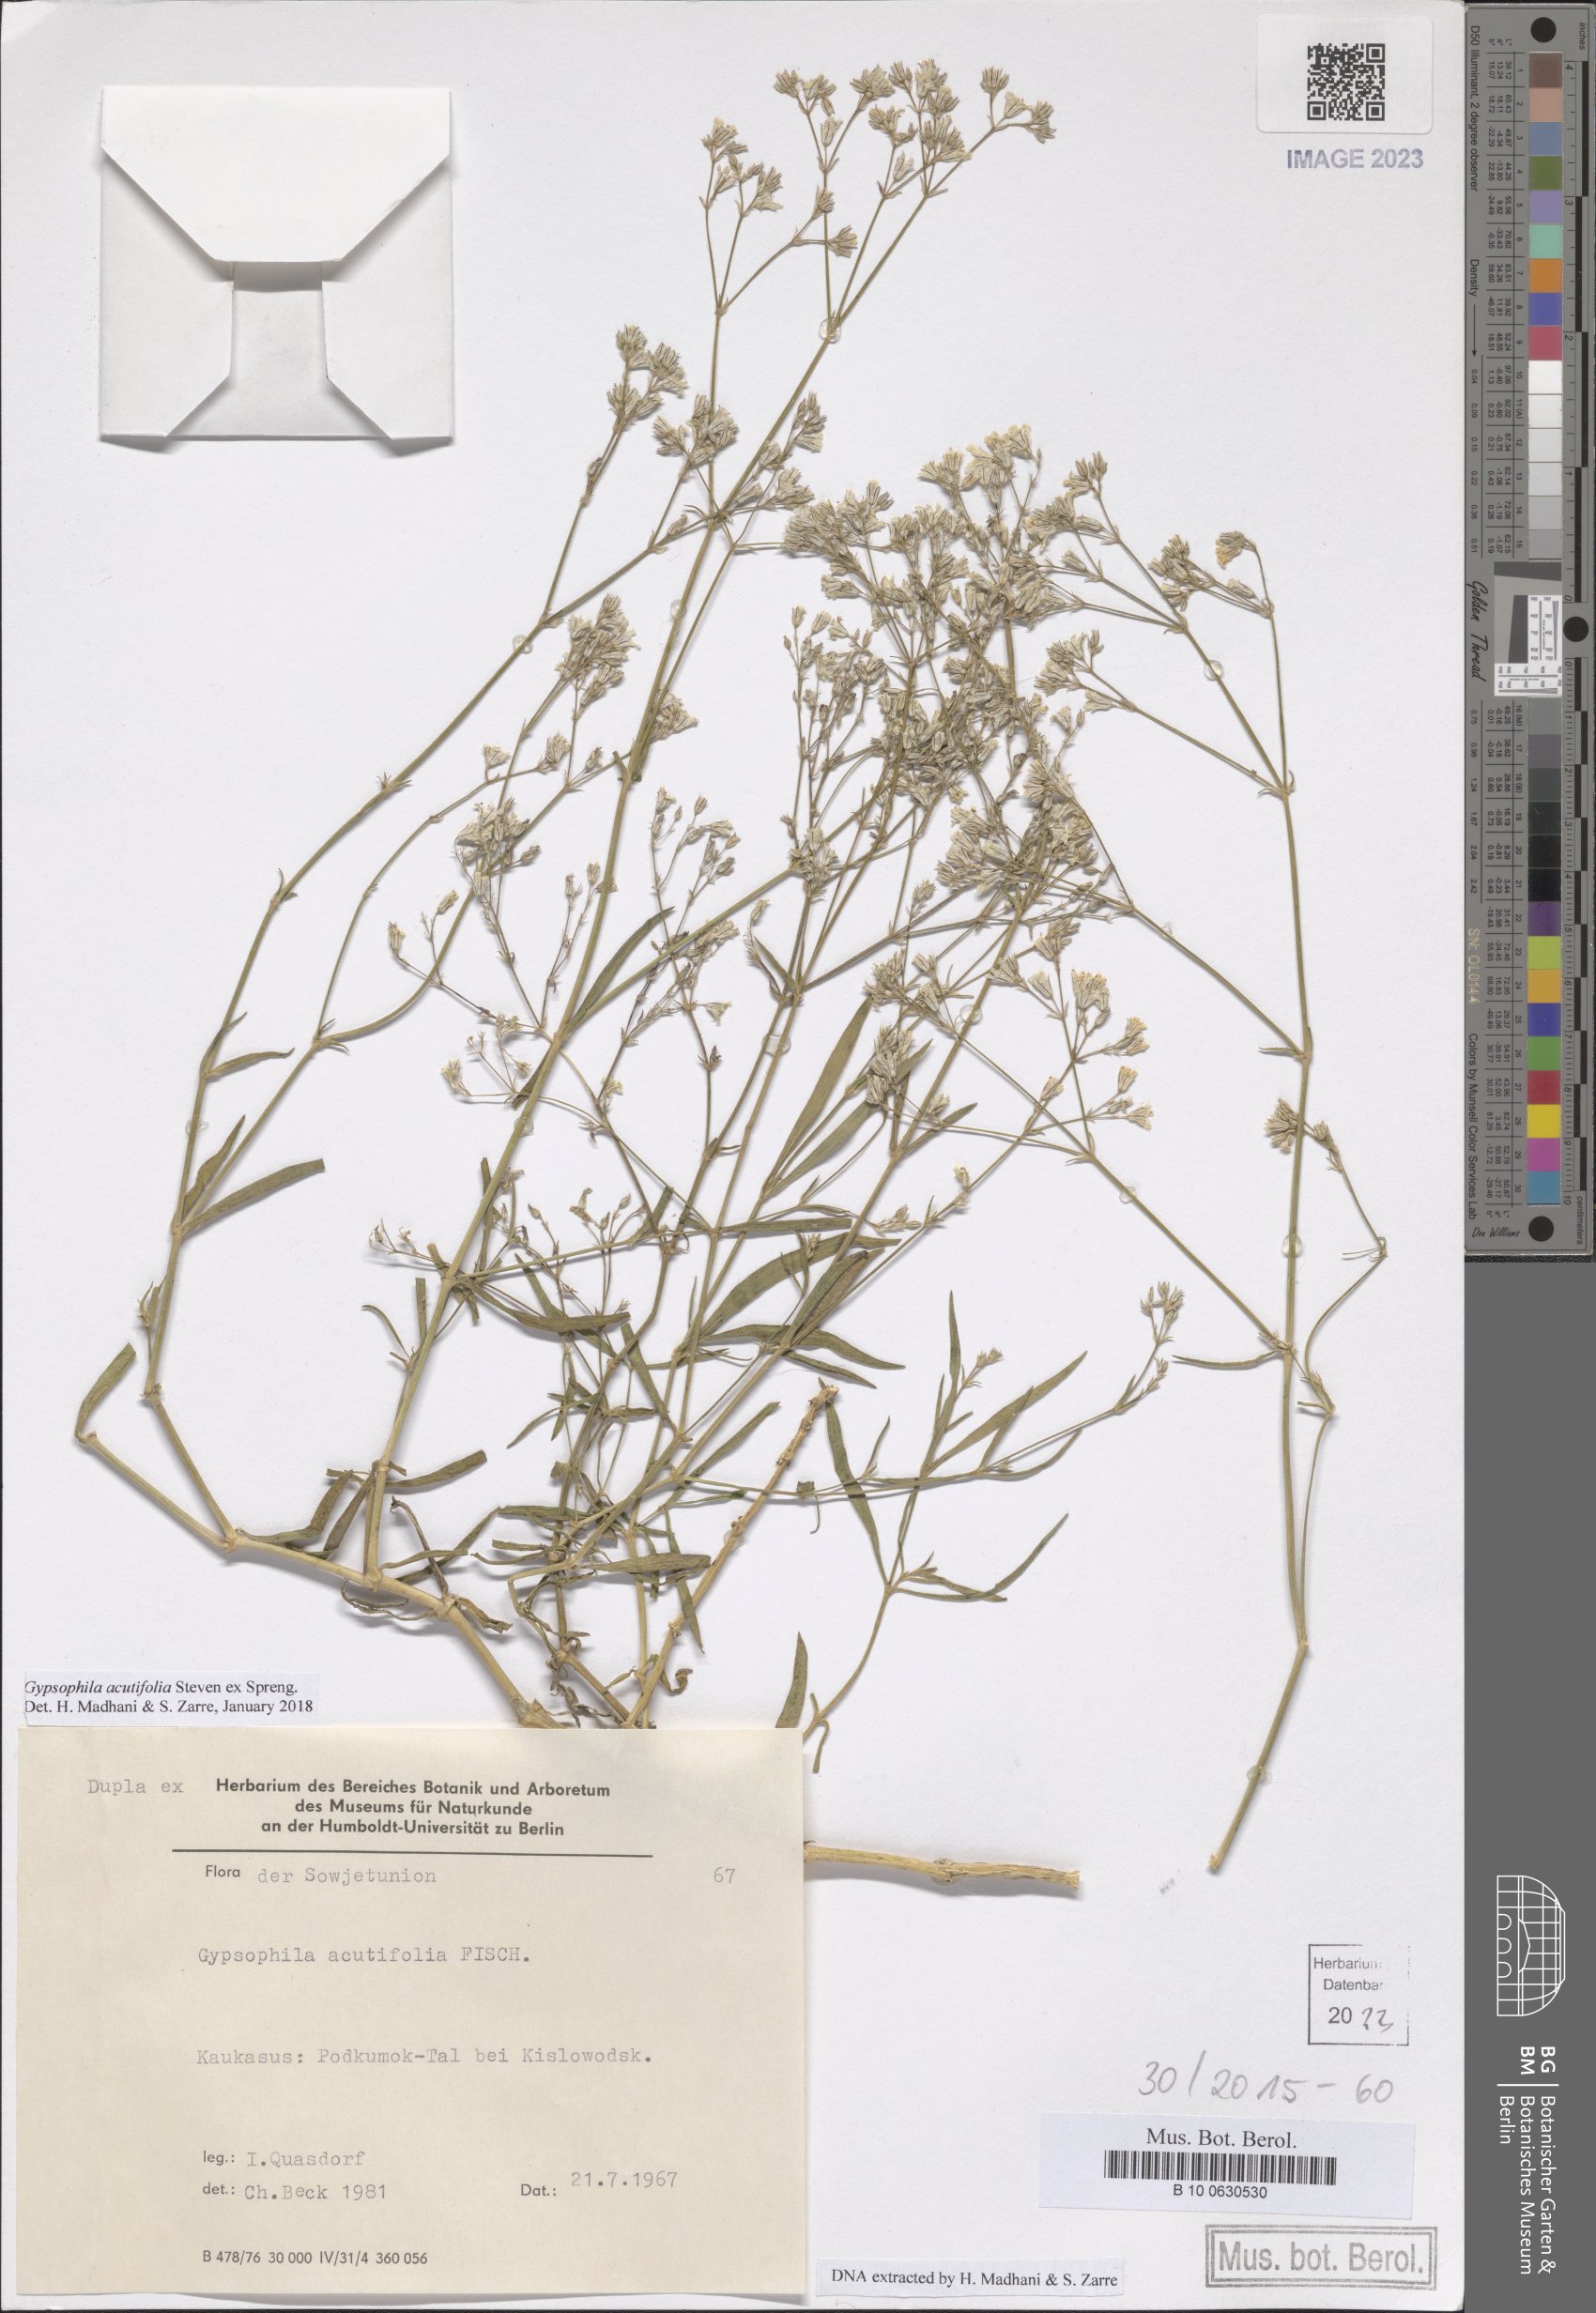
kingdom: Plantae
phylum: Tracheophyta
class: Magnoliopsida
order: Caryophyllales
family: Caryophyllaceae
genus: Gypsophila
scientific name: Gypsophila acutifolia
